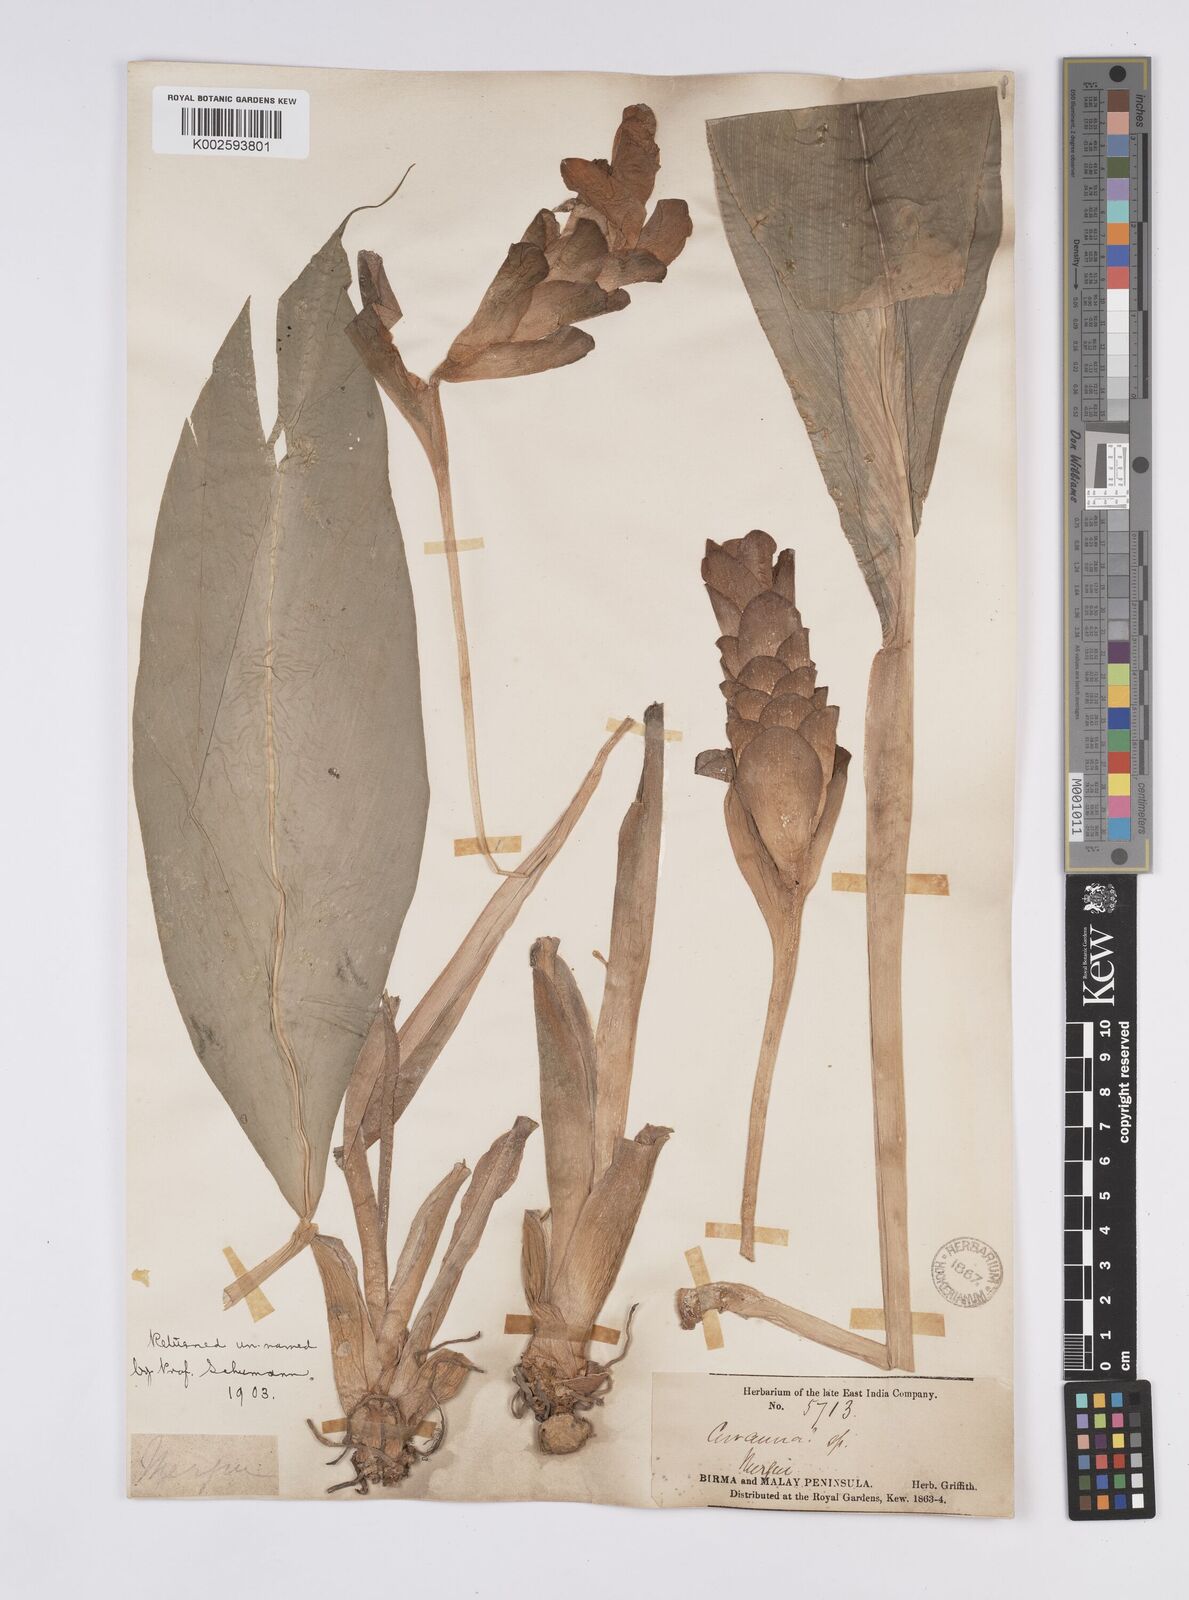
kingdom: Plantae
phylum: Tracheophyta
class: Liliopsida
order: Zingiberales
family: Zingiberaceae
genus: Curcuma
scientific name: Curcuma
